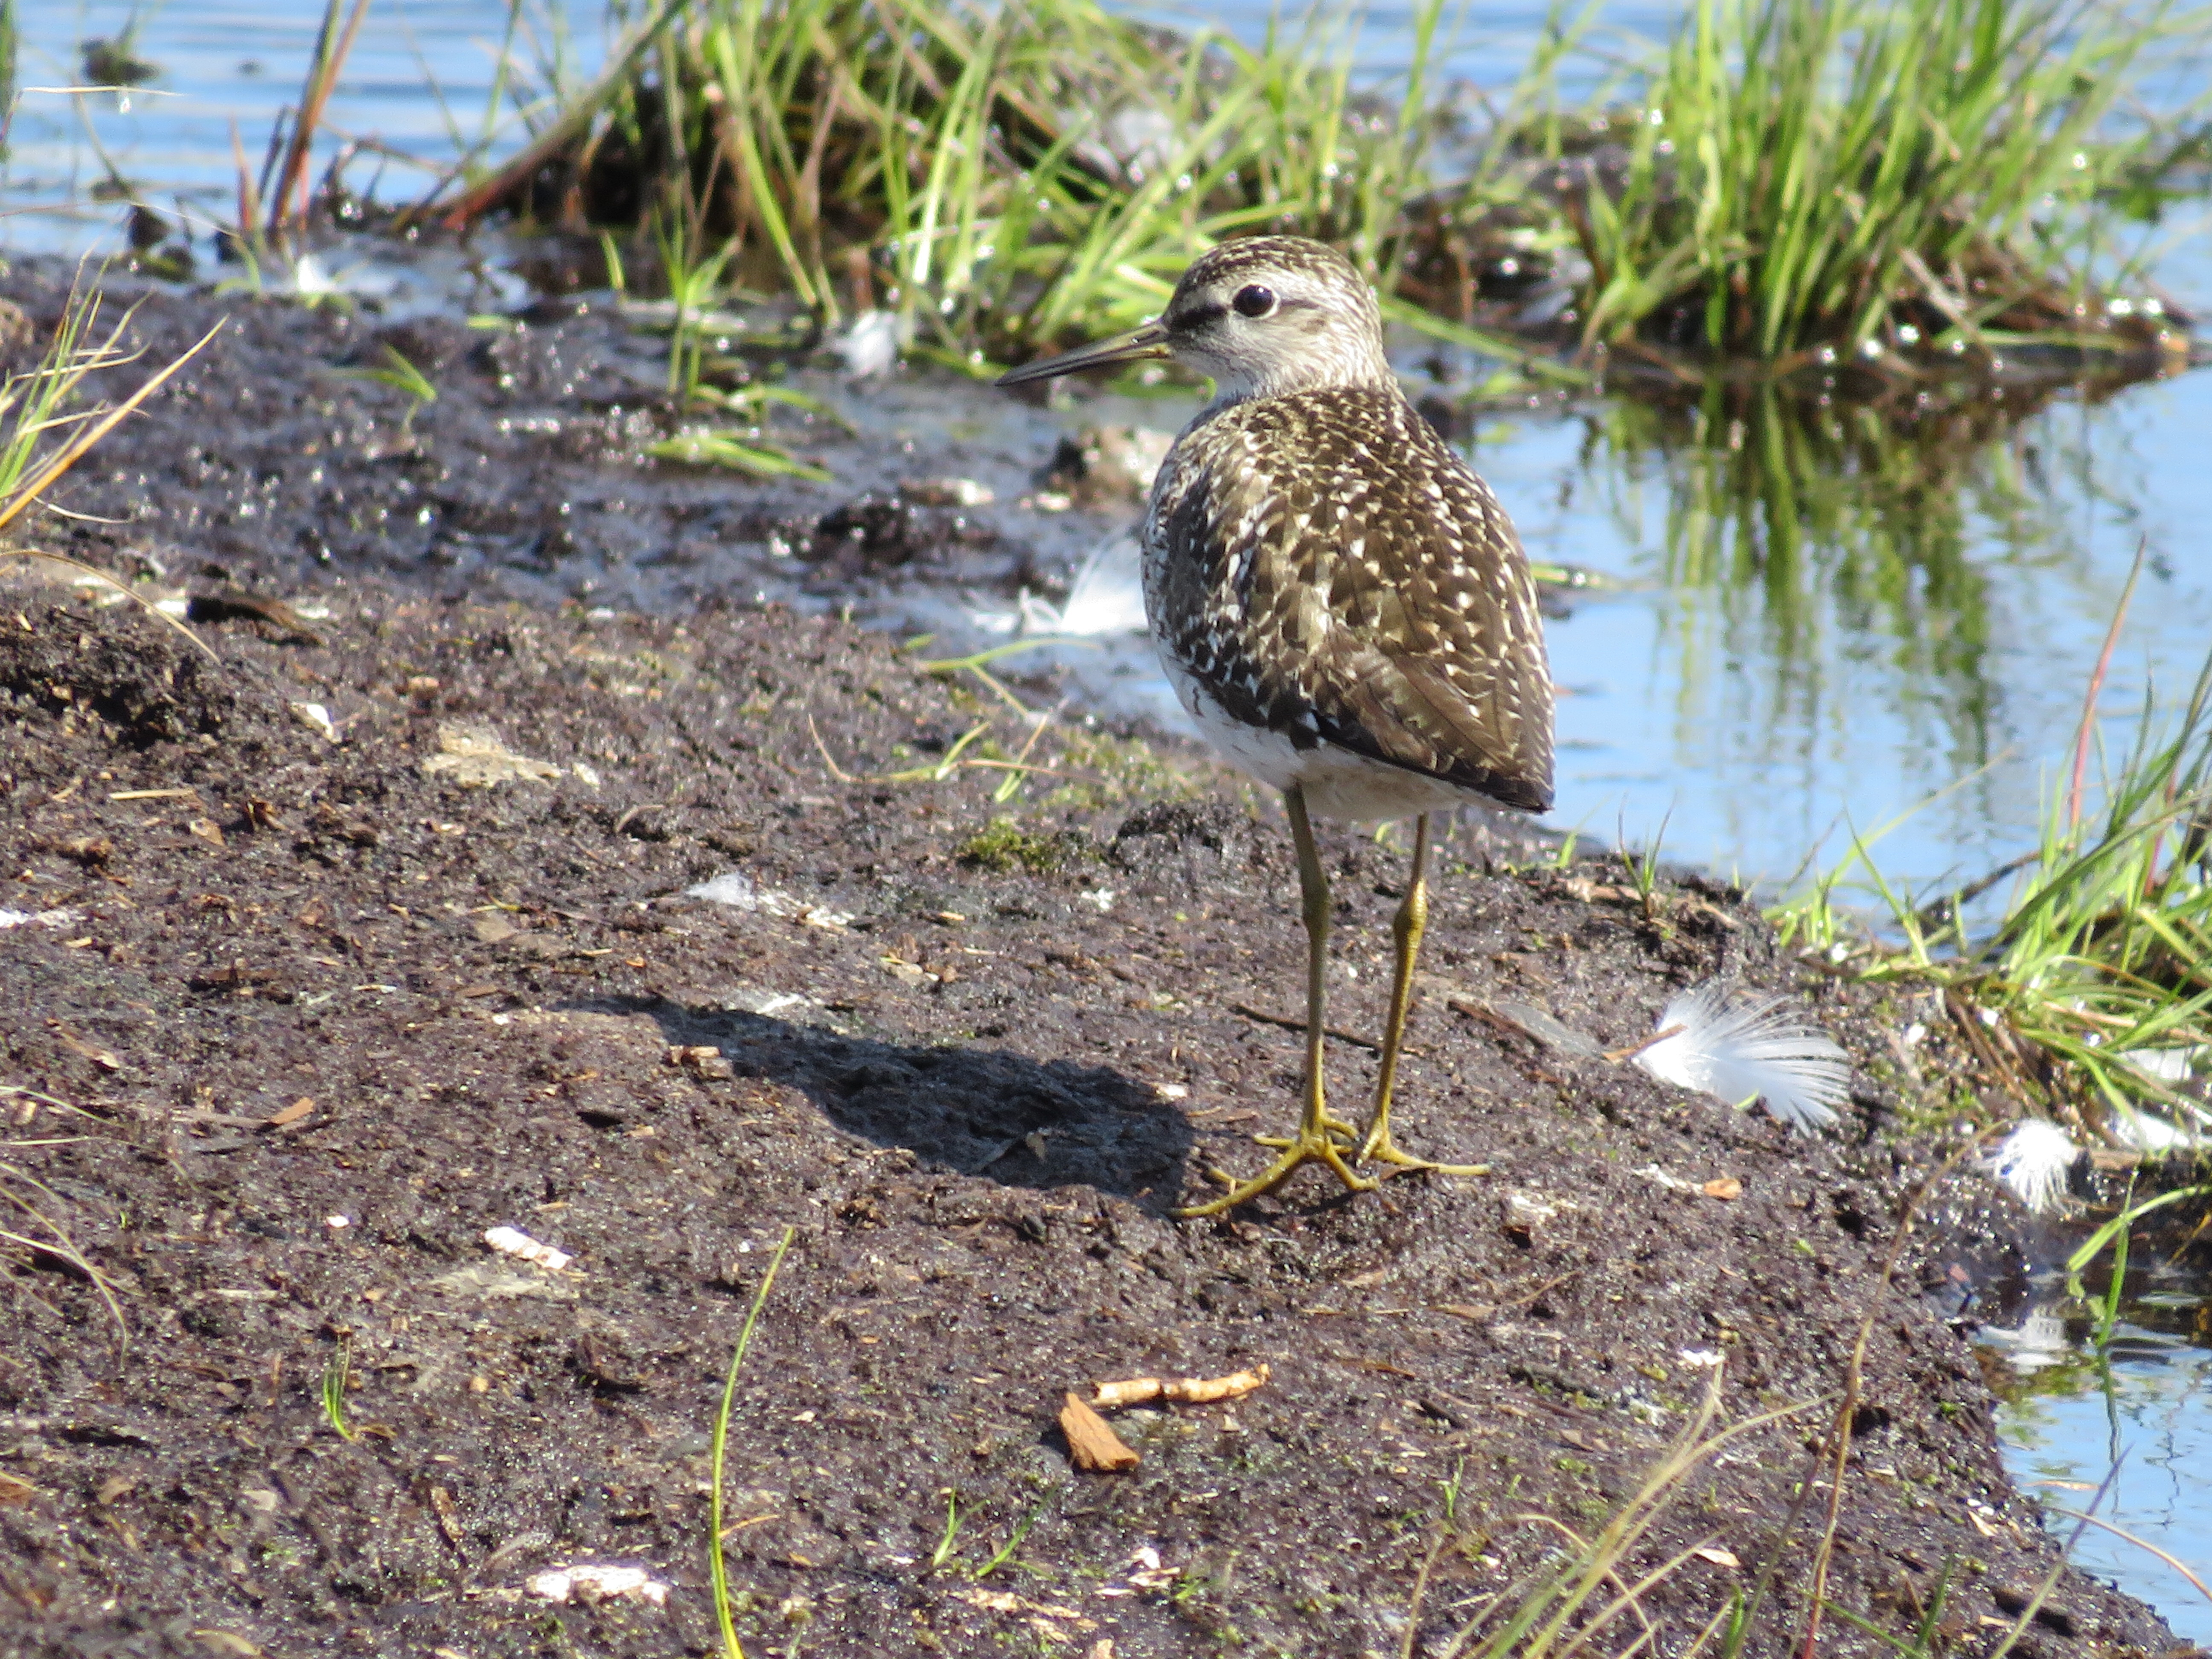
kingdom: Animalia
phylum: Chordata
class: Aves
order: Charadriiformes
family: Scolopacidae
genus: Tringa
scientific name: Tringa glareola
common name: Wood sandpiper
